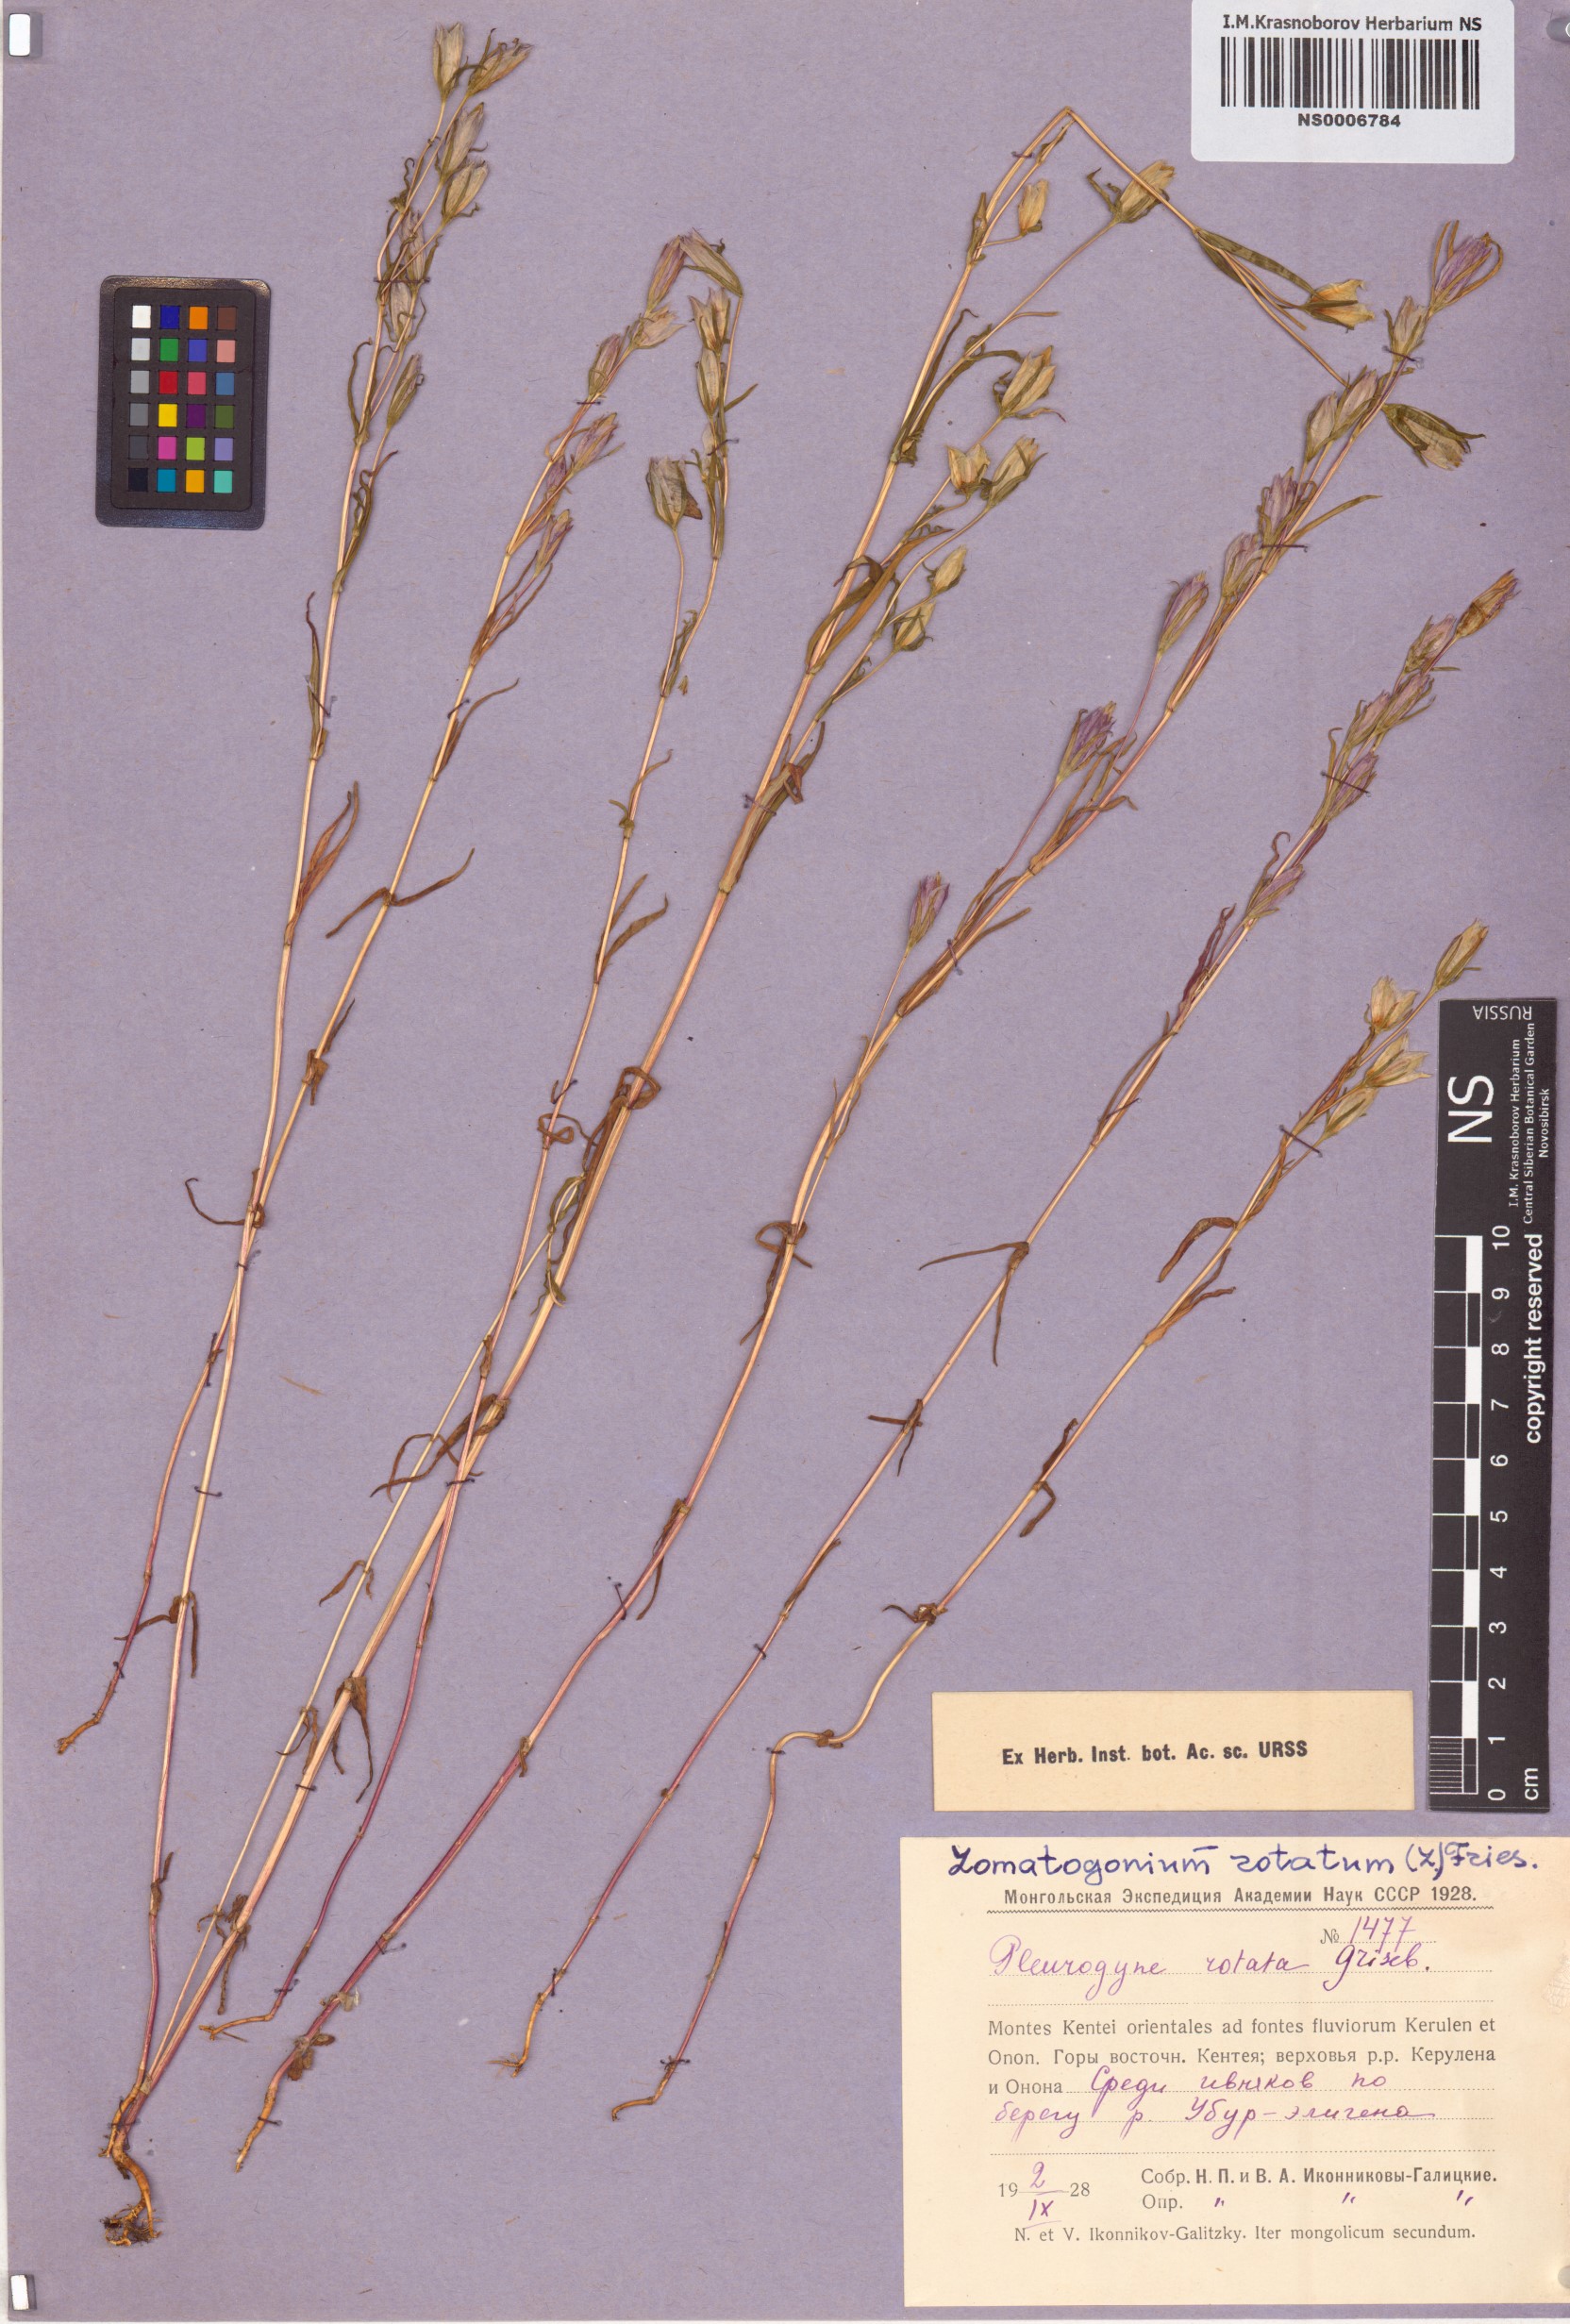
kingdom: Plantae
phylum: Tracheophyta
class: Magnoliopsida
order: Gentianales
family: Gentianaceae
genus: Lomatogonium
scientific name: Lomatogonium rotatum
